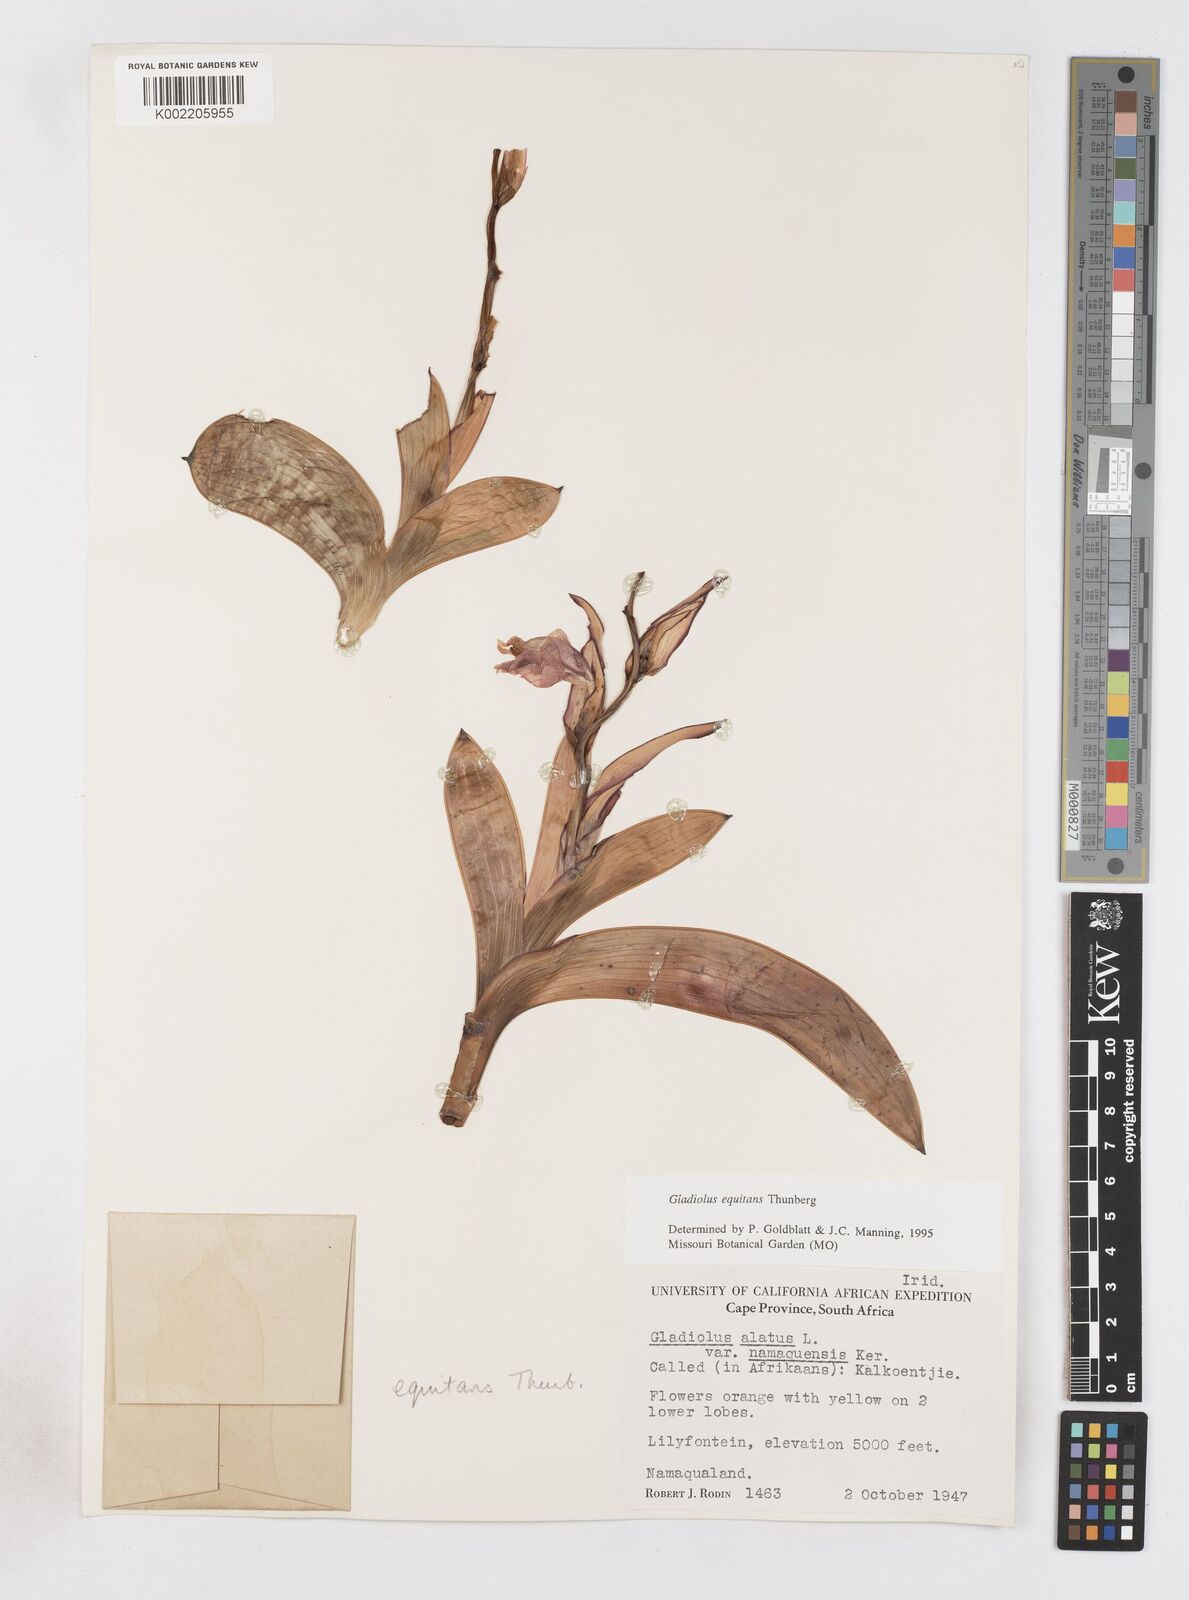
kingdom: Plantae
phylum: Tracheophyta
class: Liliopsida
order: Asparagales
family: Iridaceae
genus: Gladiolus
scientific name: Gladiolus equitans
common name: Large red kalkoentjie
